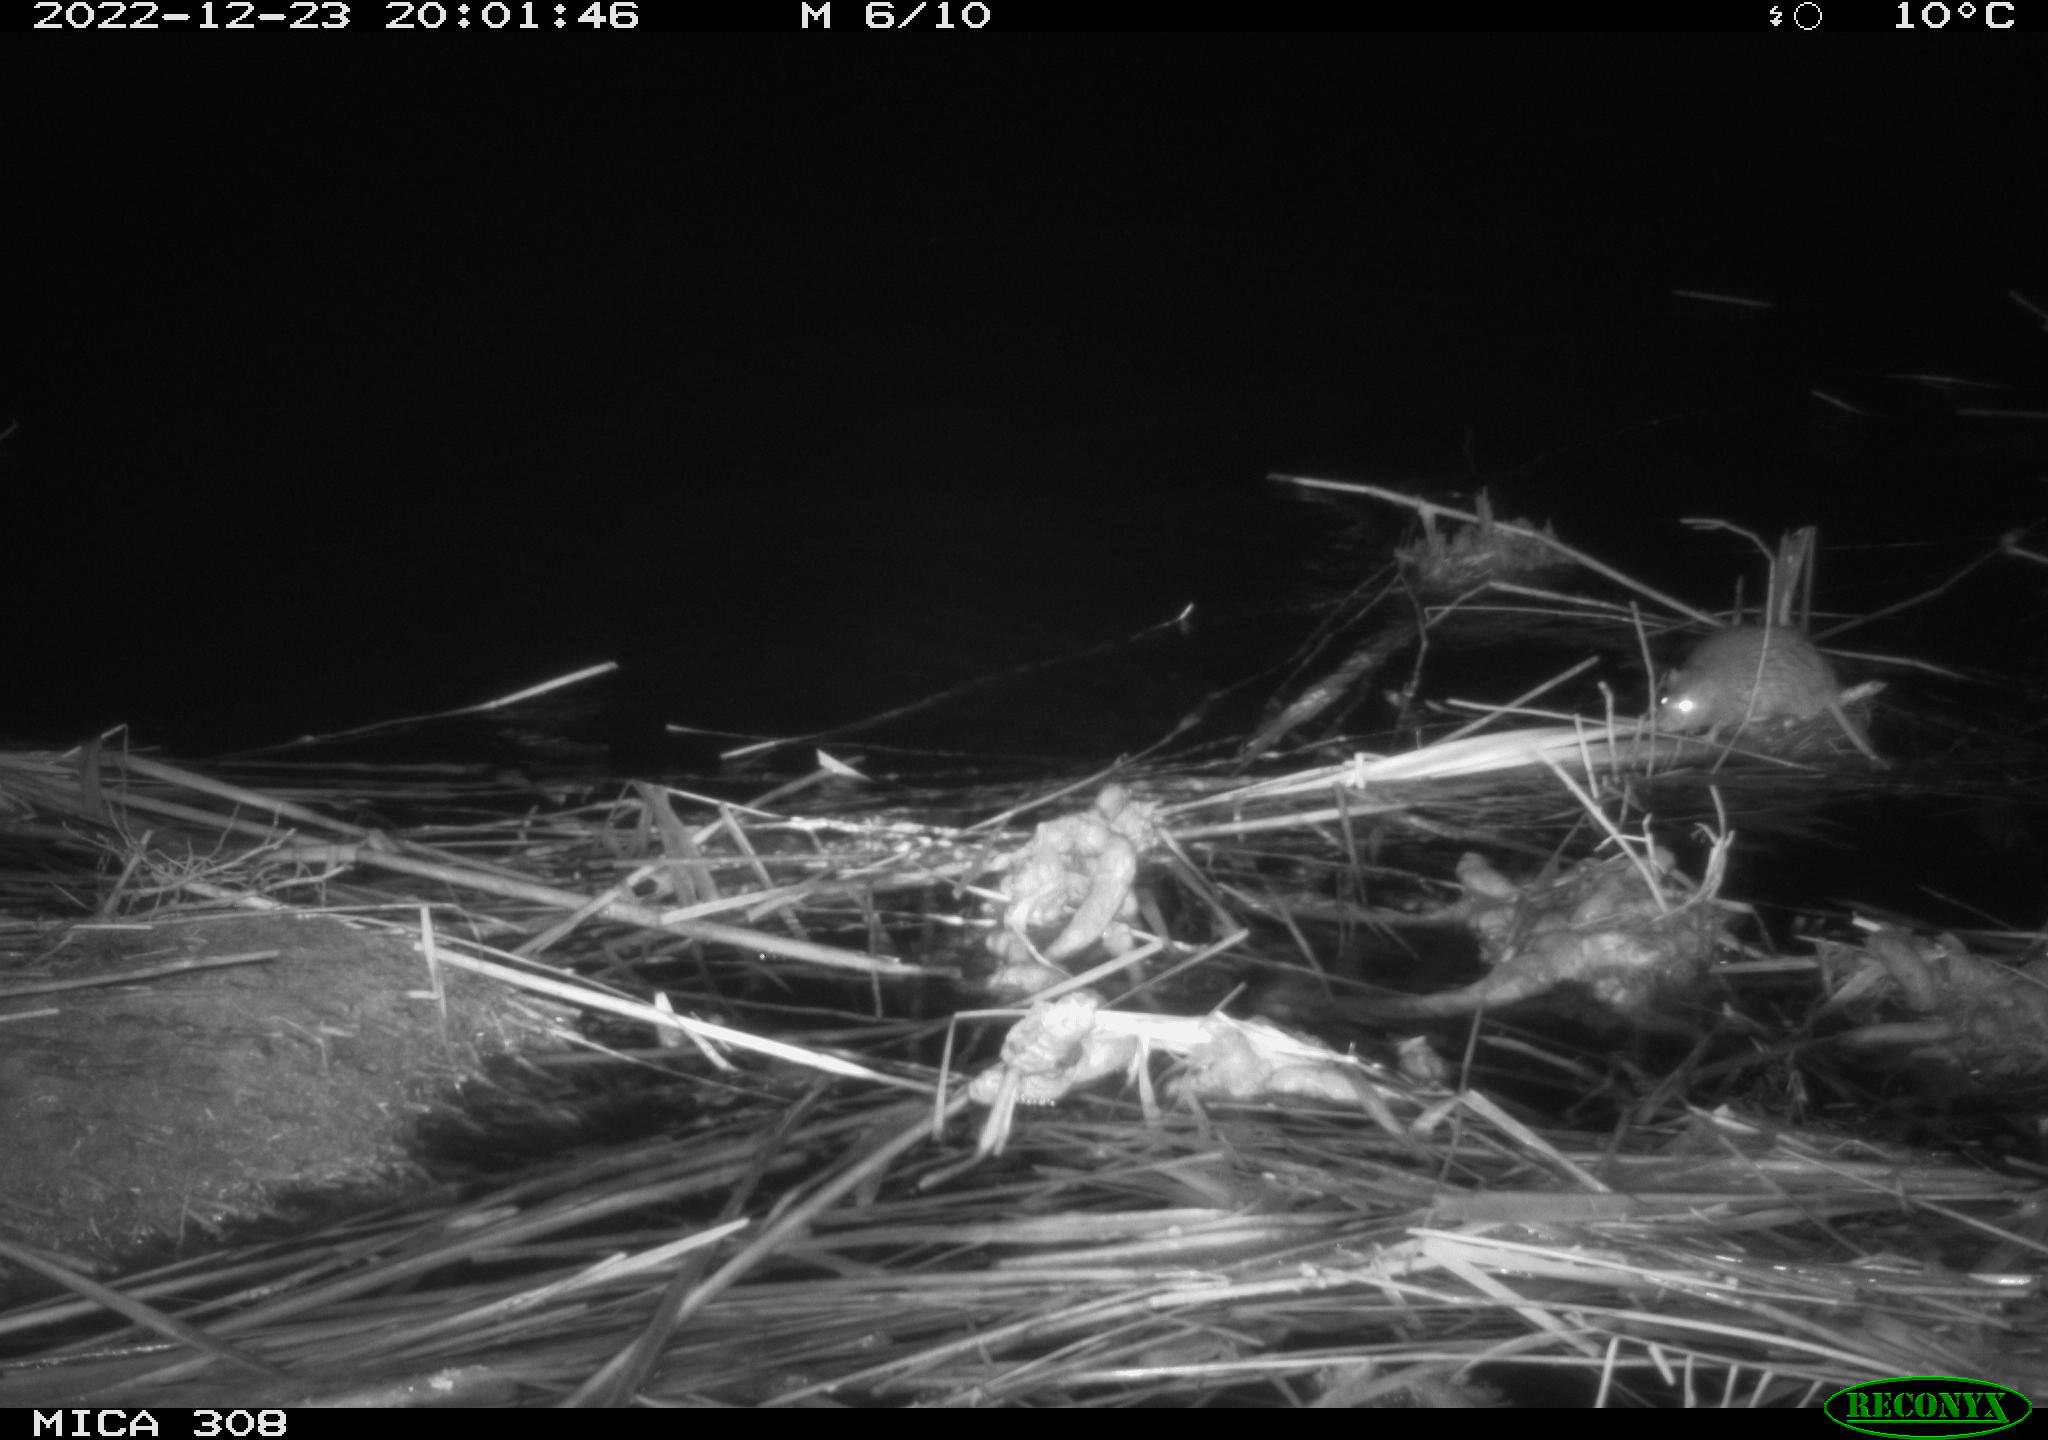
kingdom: Animalia
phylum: Chordata
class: Mammalia
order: Rodentia
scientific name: Rodentia
